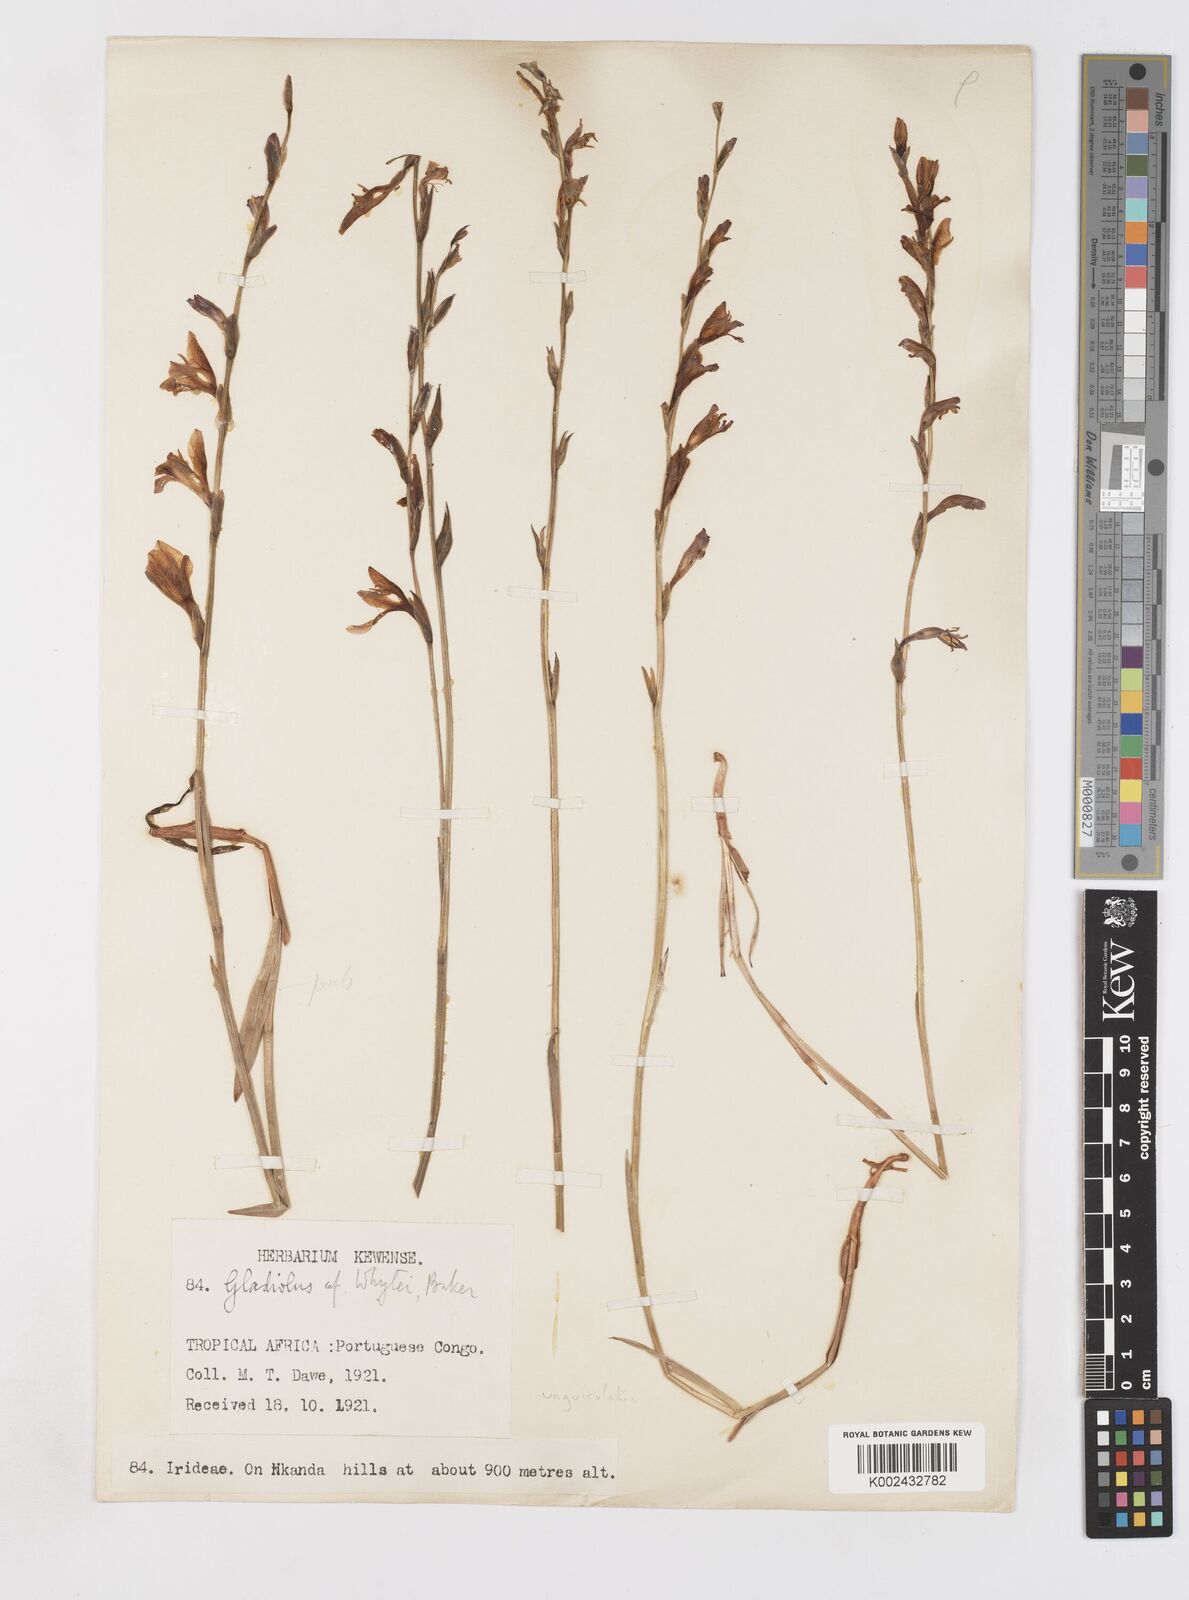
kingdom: Plantae
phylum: Tracheophyta
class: Liliopsida
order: Asparagales
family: Iridaceae
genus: Gladiolus
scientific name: Gladiolus unguiculatus
